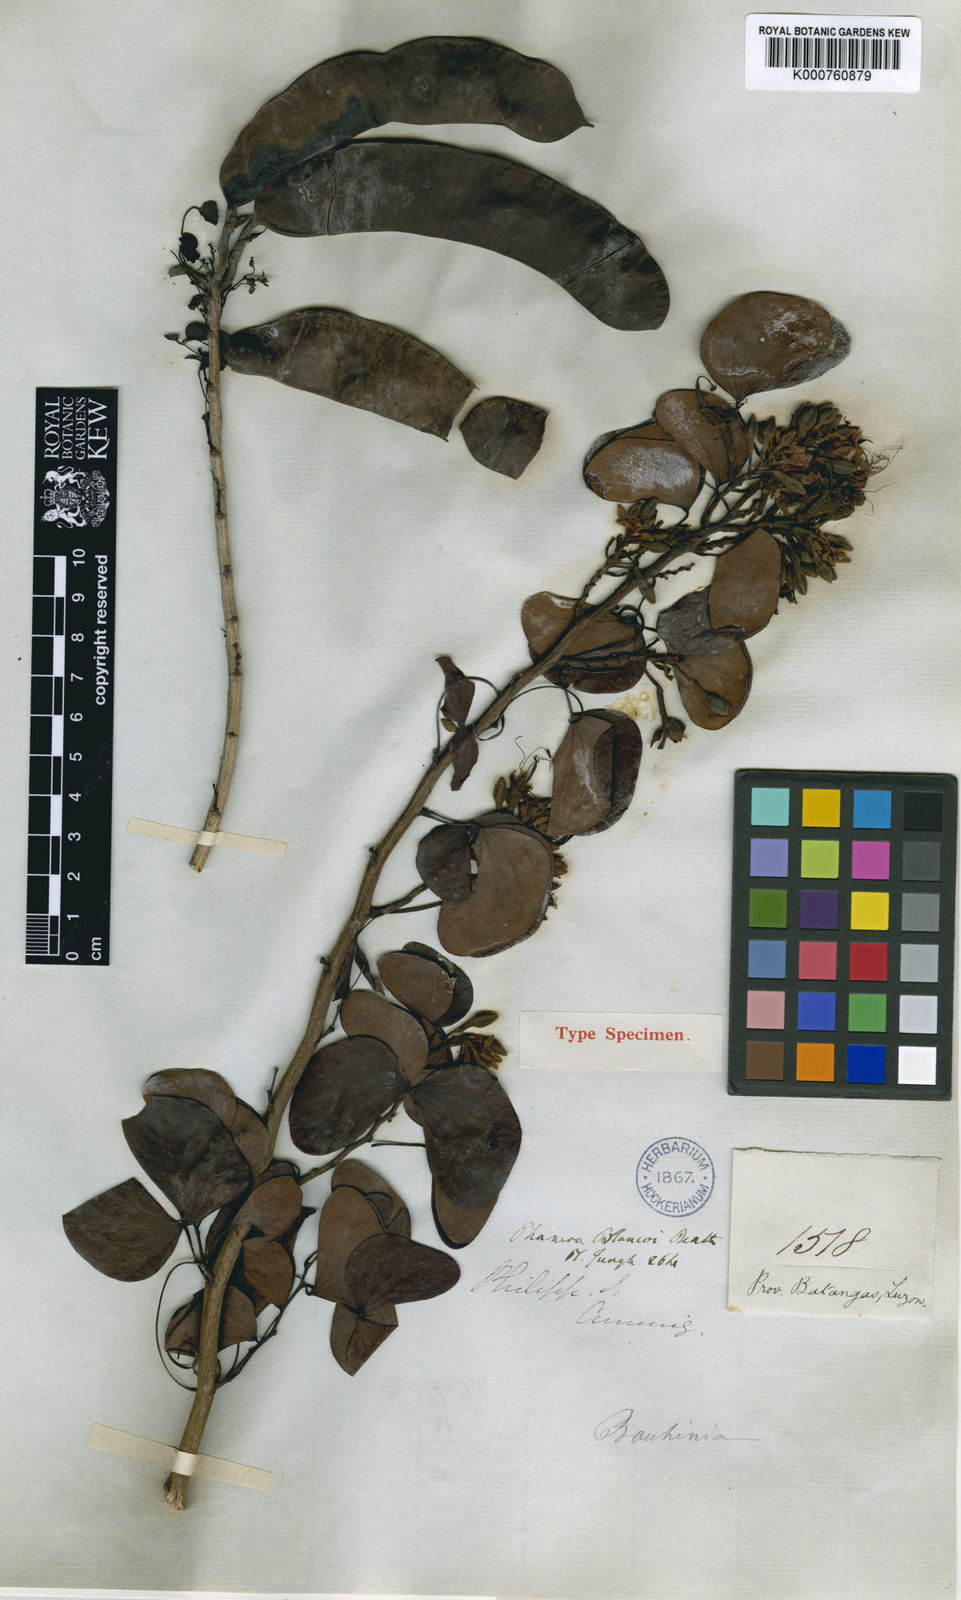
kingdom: Plantae
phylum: Tracheophyta
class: Magnoliopsida
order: Fabales
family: Fabaceae
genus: Lysiphyllum
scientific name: Lysiphyllum binatum
